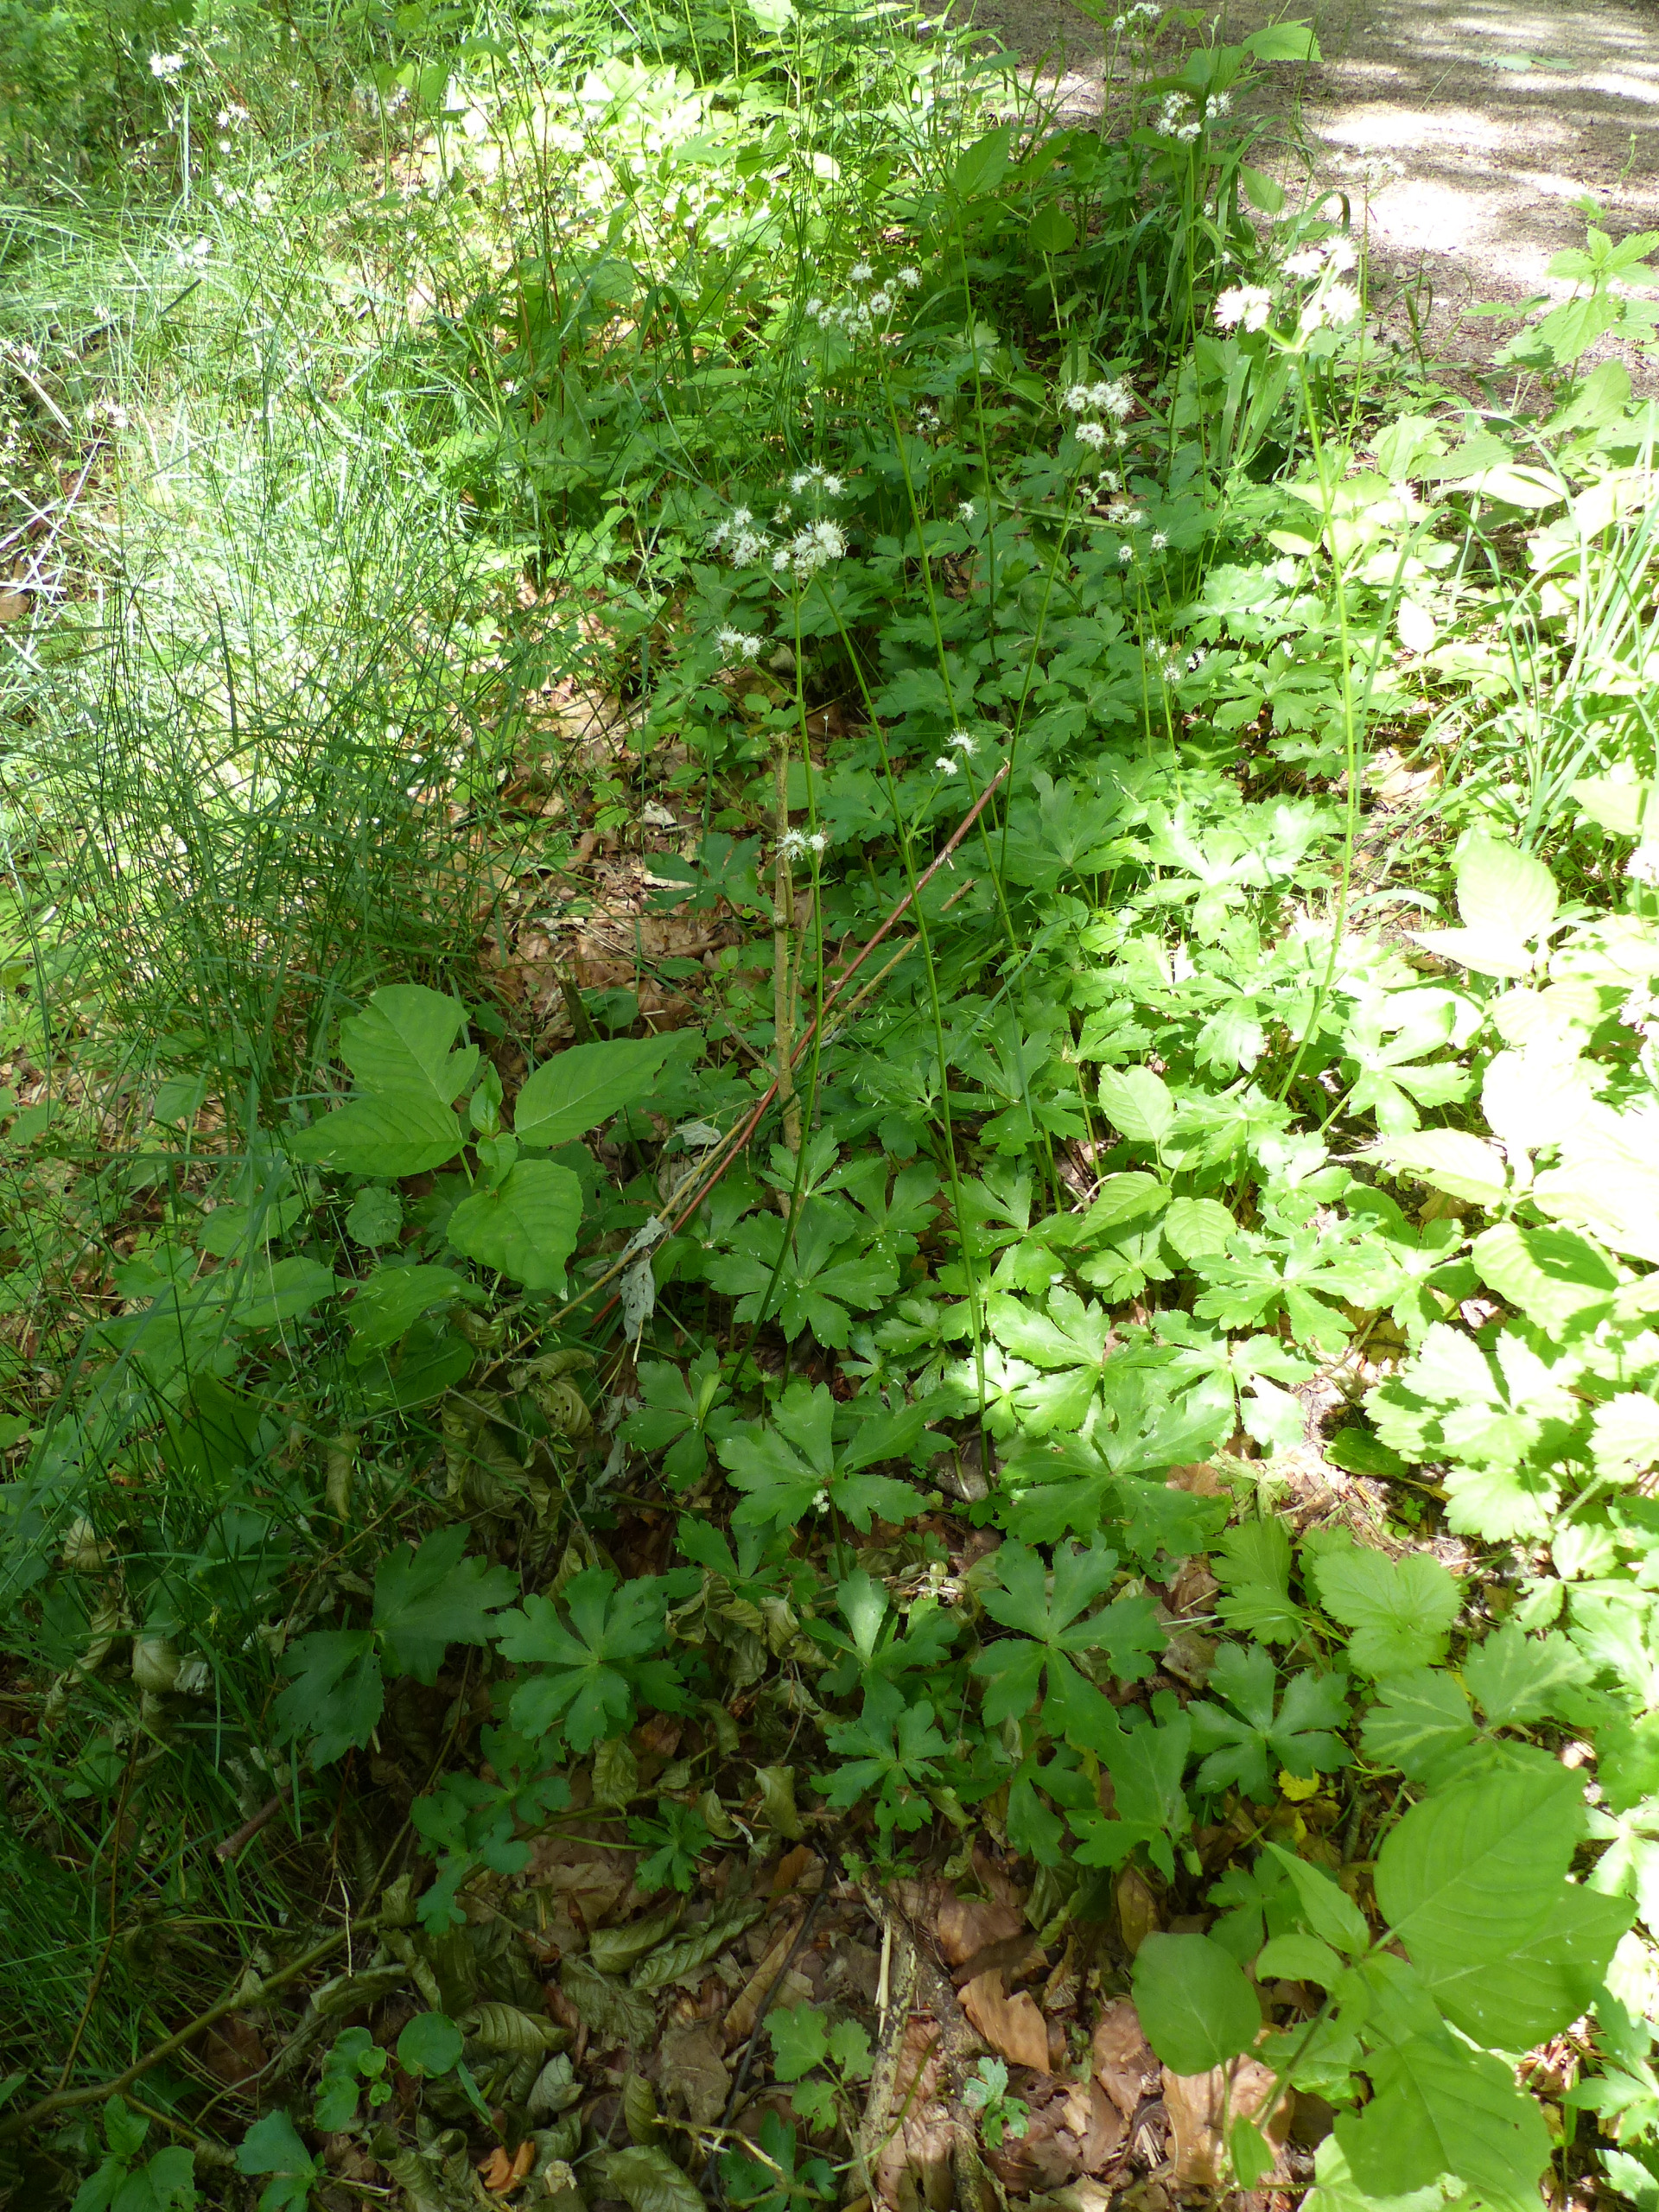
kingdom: Plantae
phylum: Tracheophyta
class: Magnoliopsida
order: Apiales
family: Apiaceae
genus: Sanicula
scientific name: Sanicula europaea
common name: Sanikel
